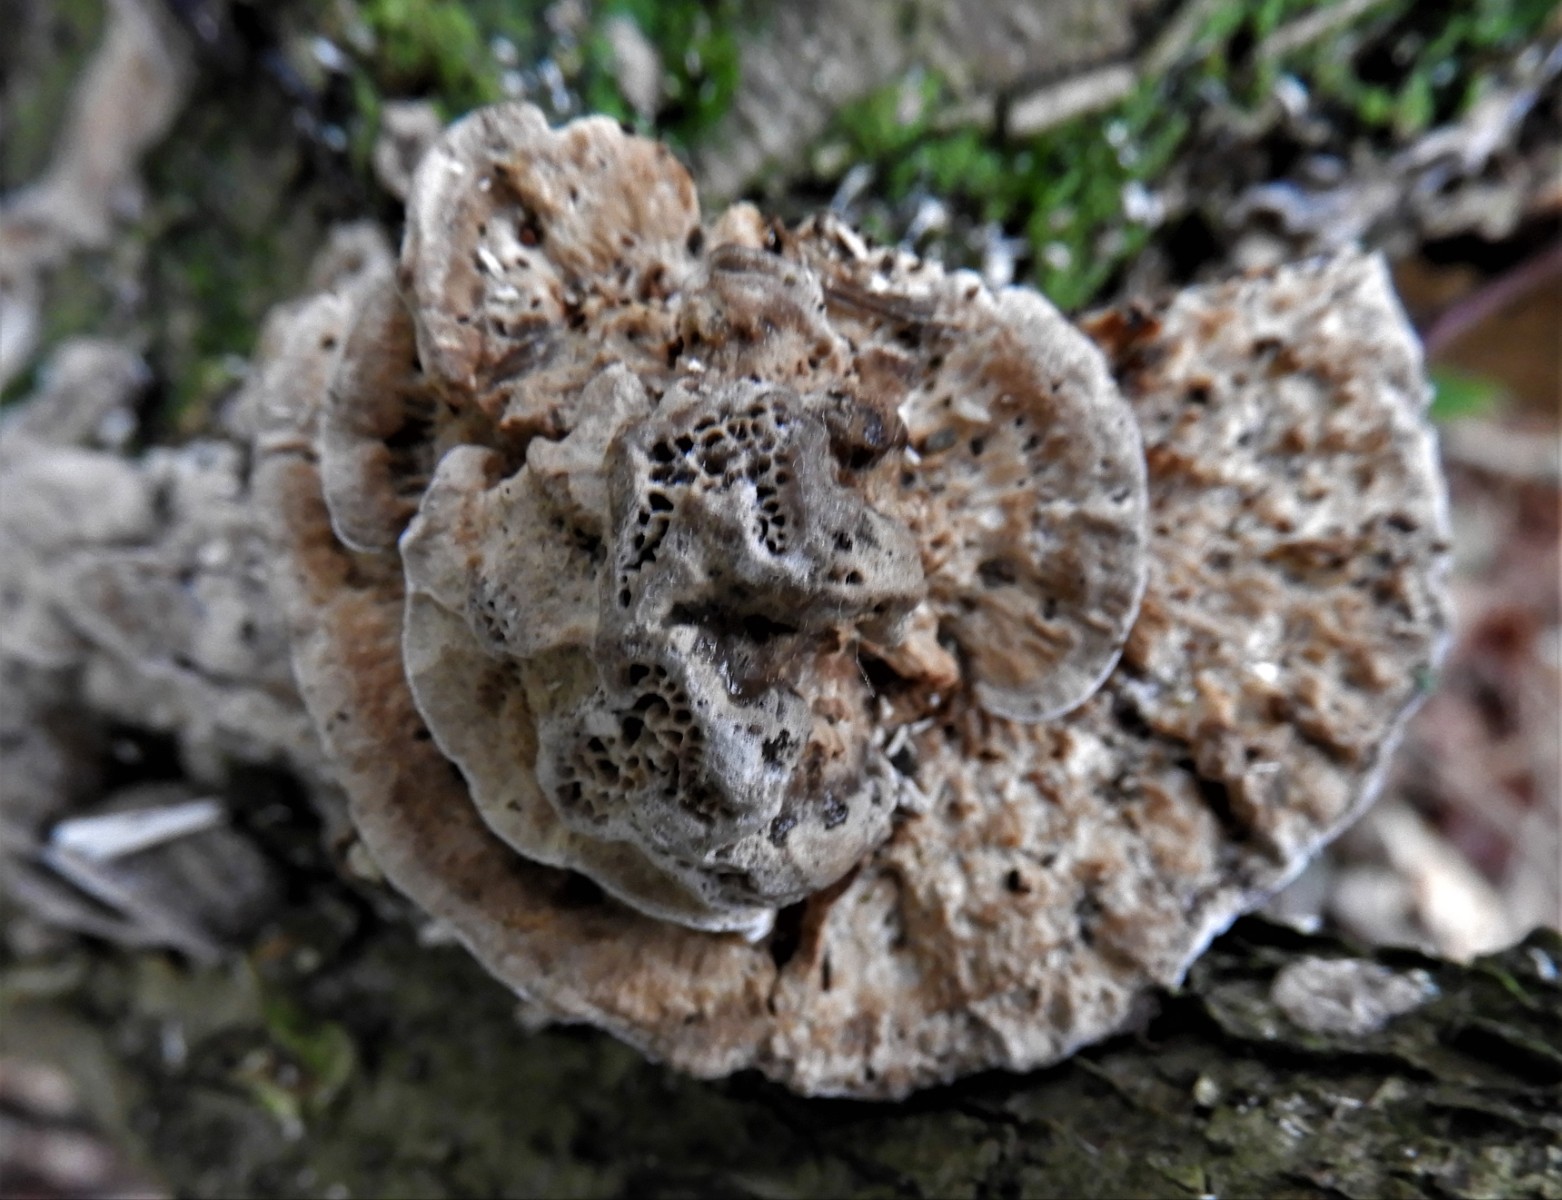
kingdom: Fungi
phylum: Basidiomycota
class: Agaricomycetes
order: Polyporales
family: Polyporaceae
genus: Lenzites
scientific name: Lenzites betulinus
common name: birke-læderporesvamp
